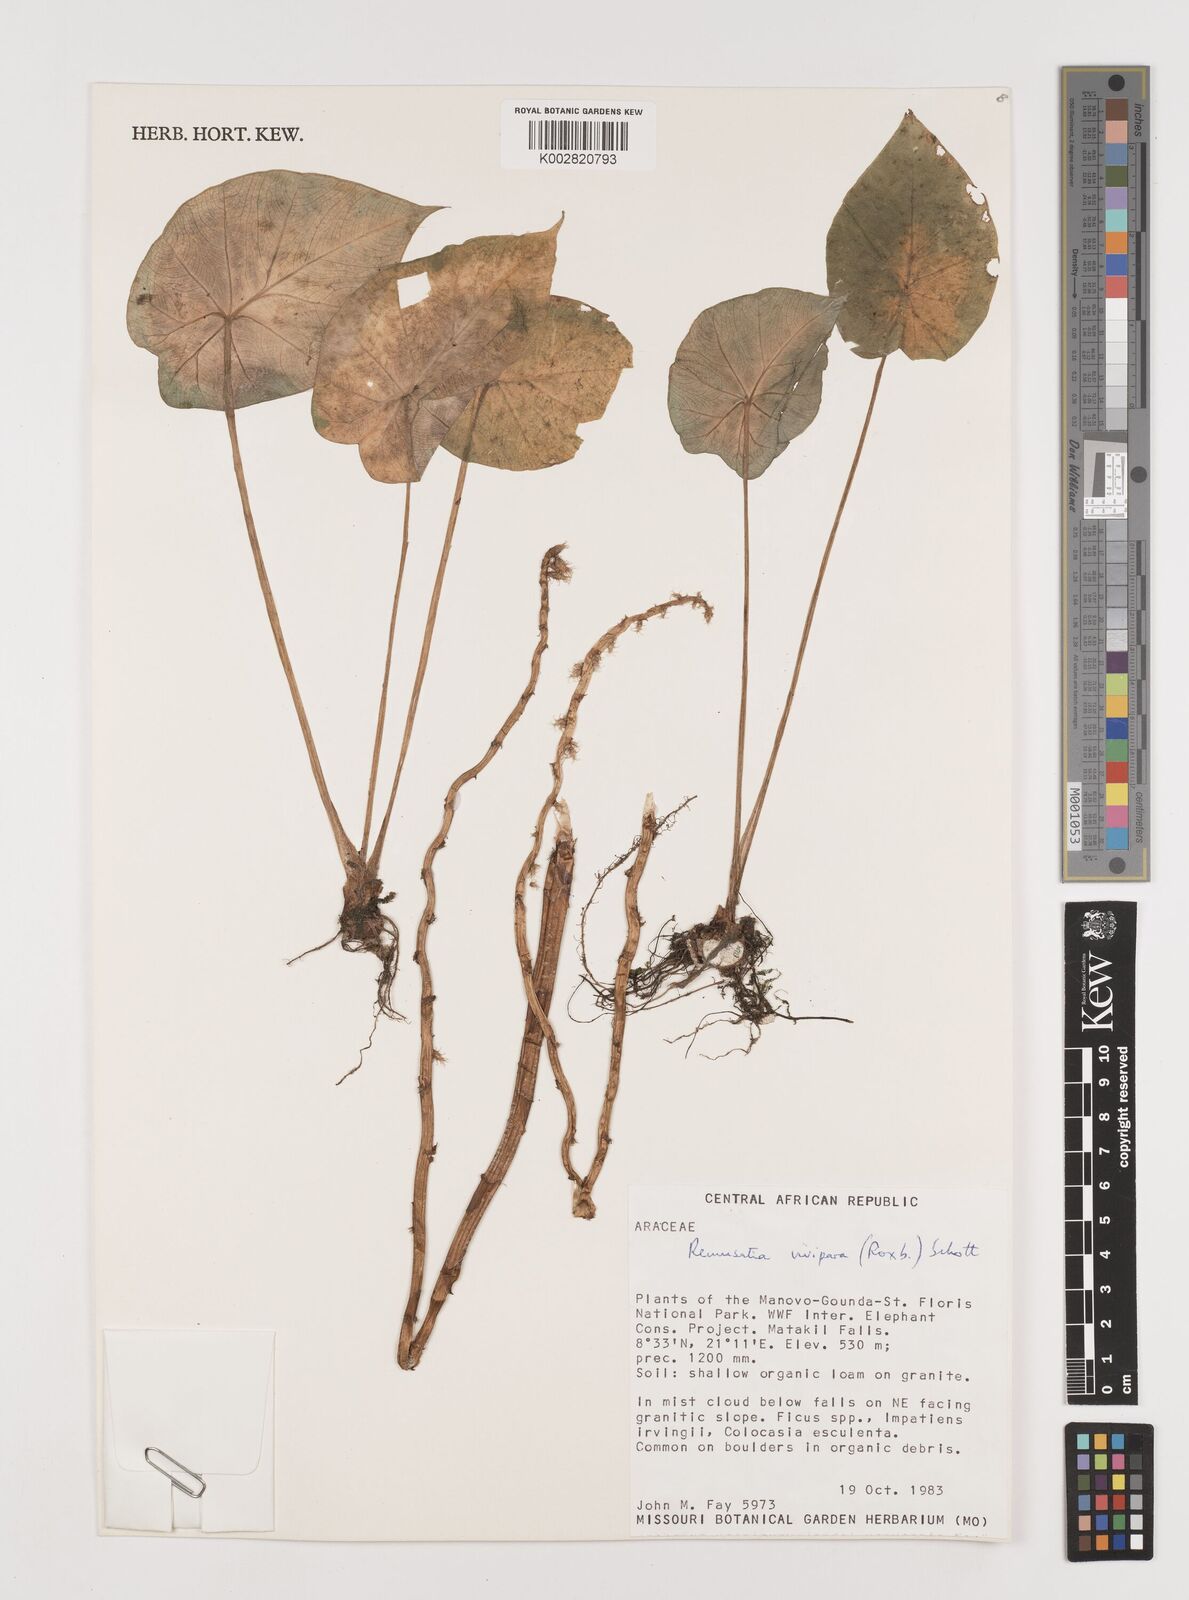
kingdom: Plantae
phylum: Tracheophyta
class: Liliopsida
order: Alismatales
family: Araceae
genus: Remusatia
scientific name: Remusatia vivipara
